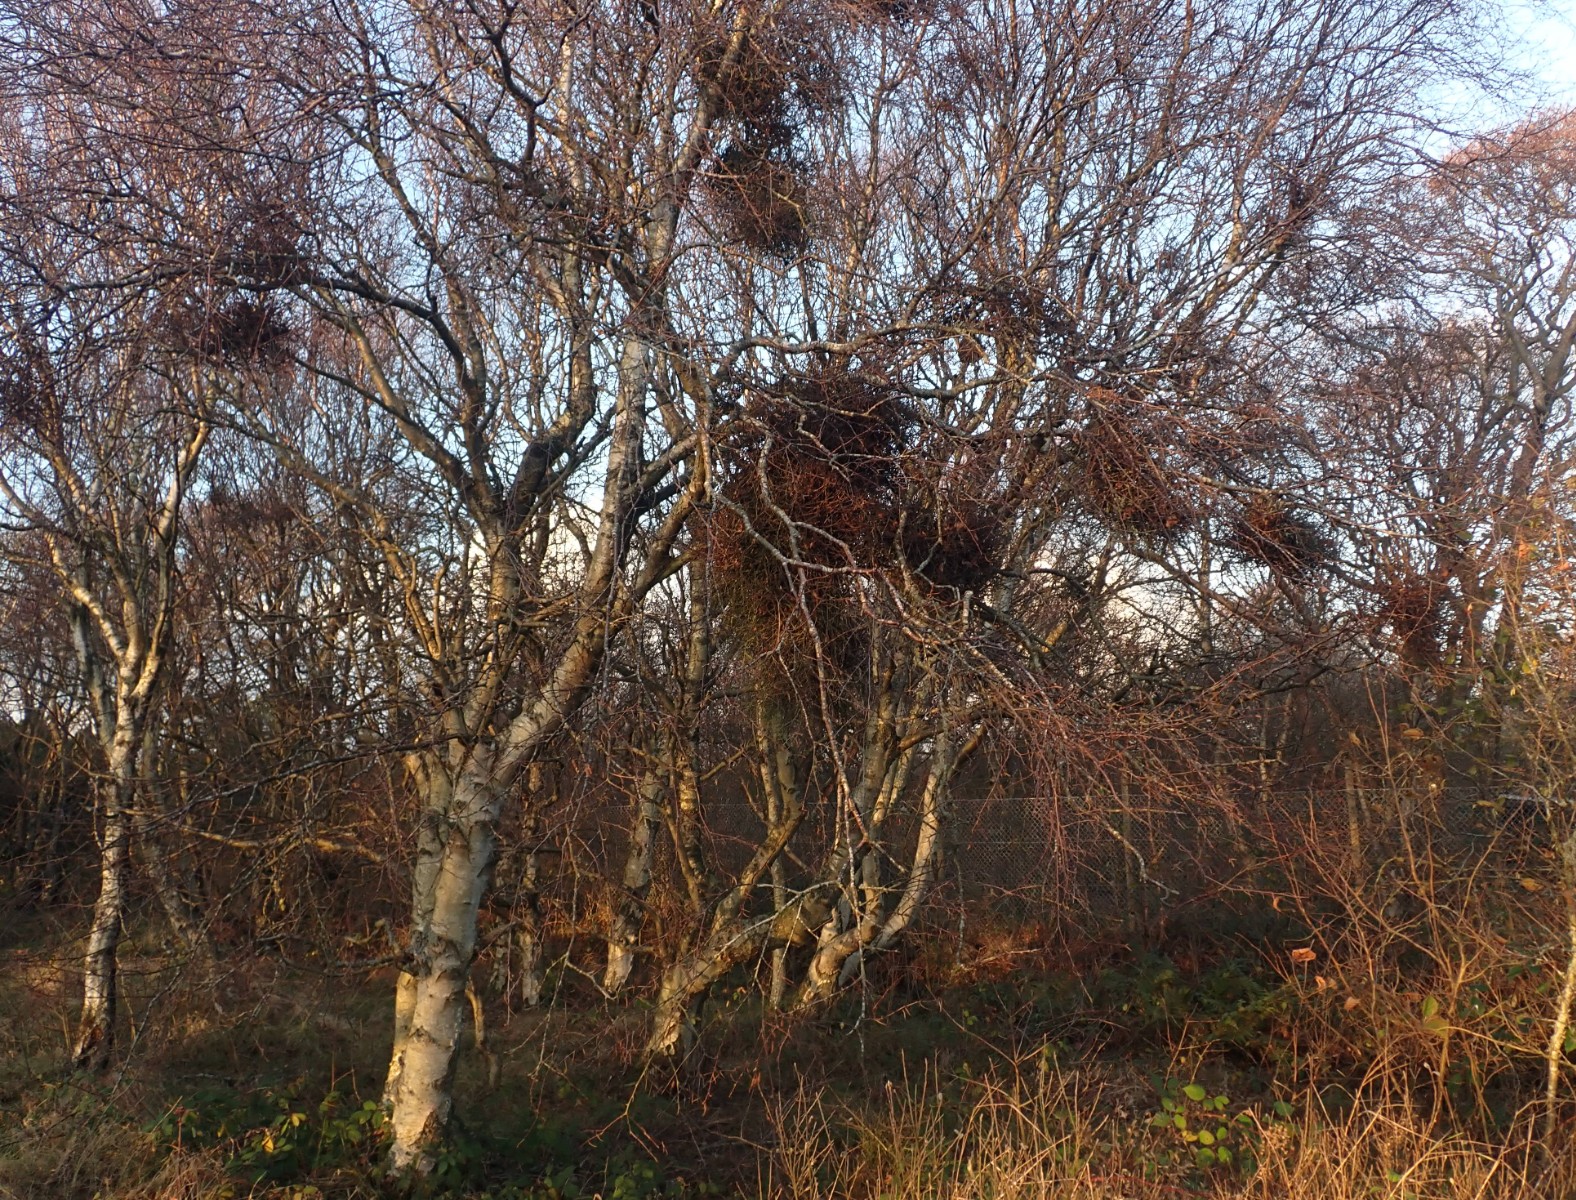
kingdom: Fungi
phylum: Ascomycota
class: Taphrinomycetes
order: Taphrinales
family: Taphrinaceae
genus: Taphrina
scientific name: Taphrina betulina
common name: hekse-sækdug
